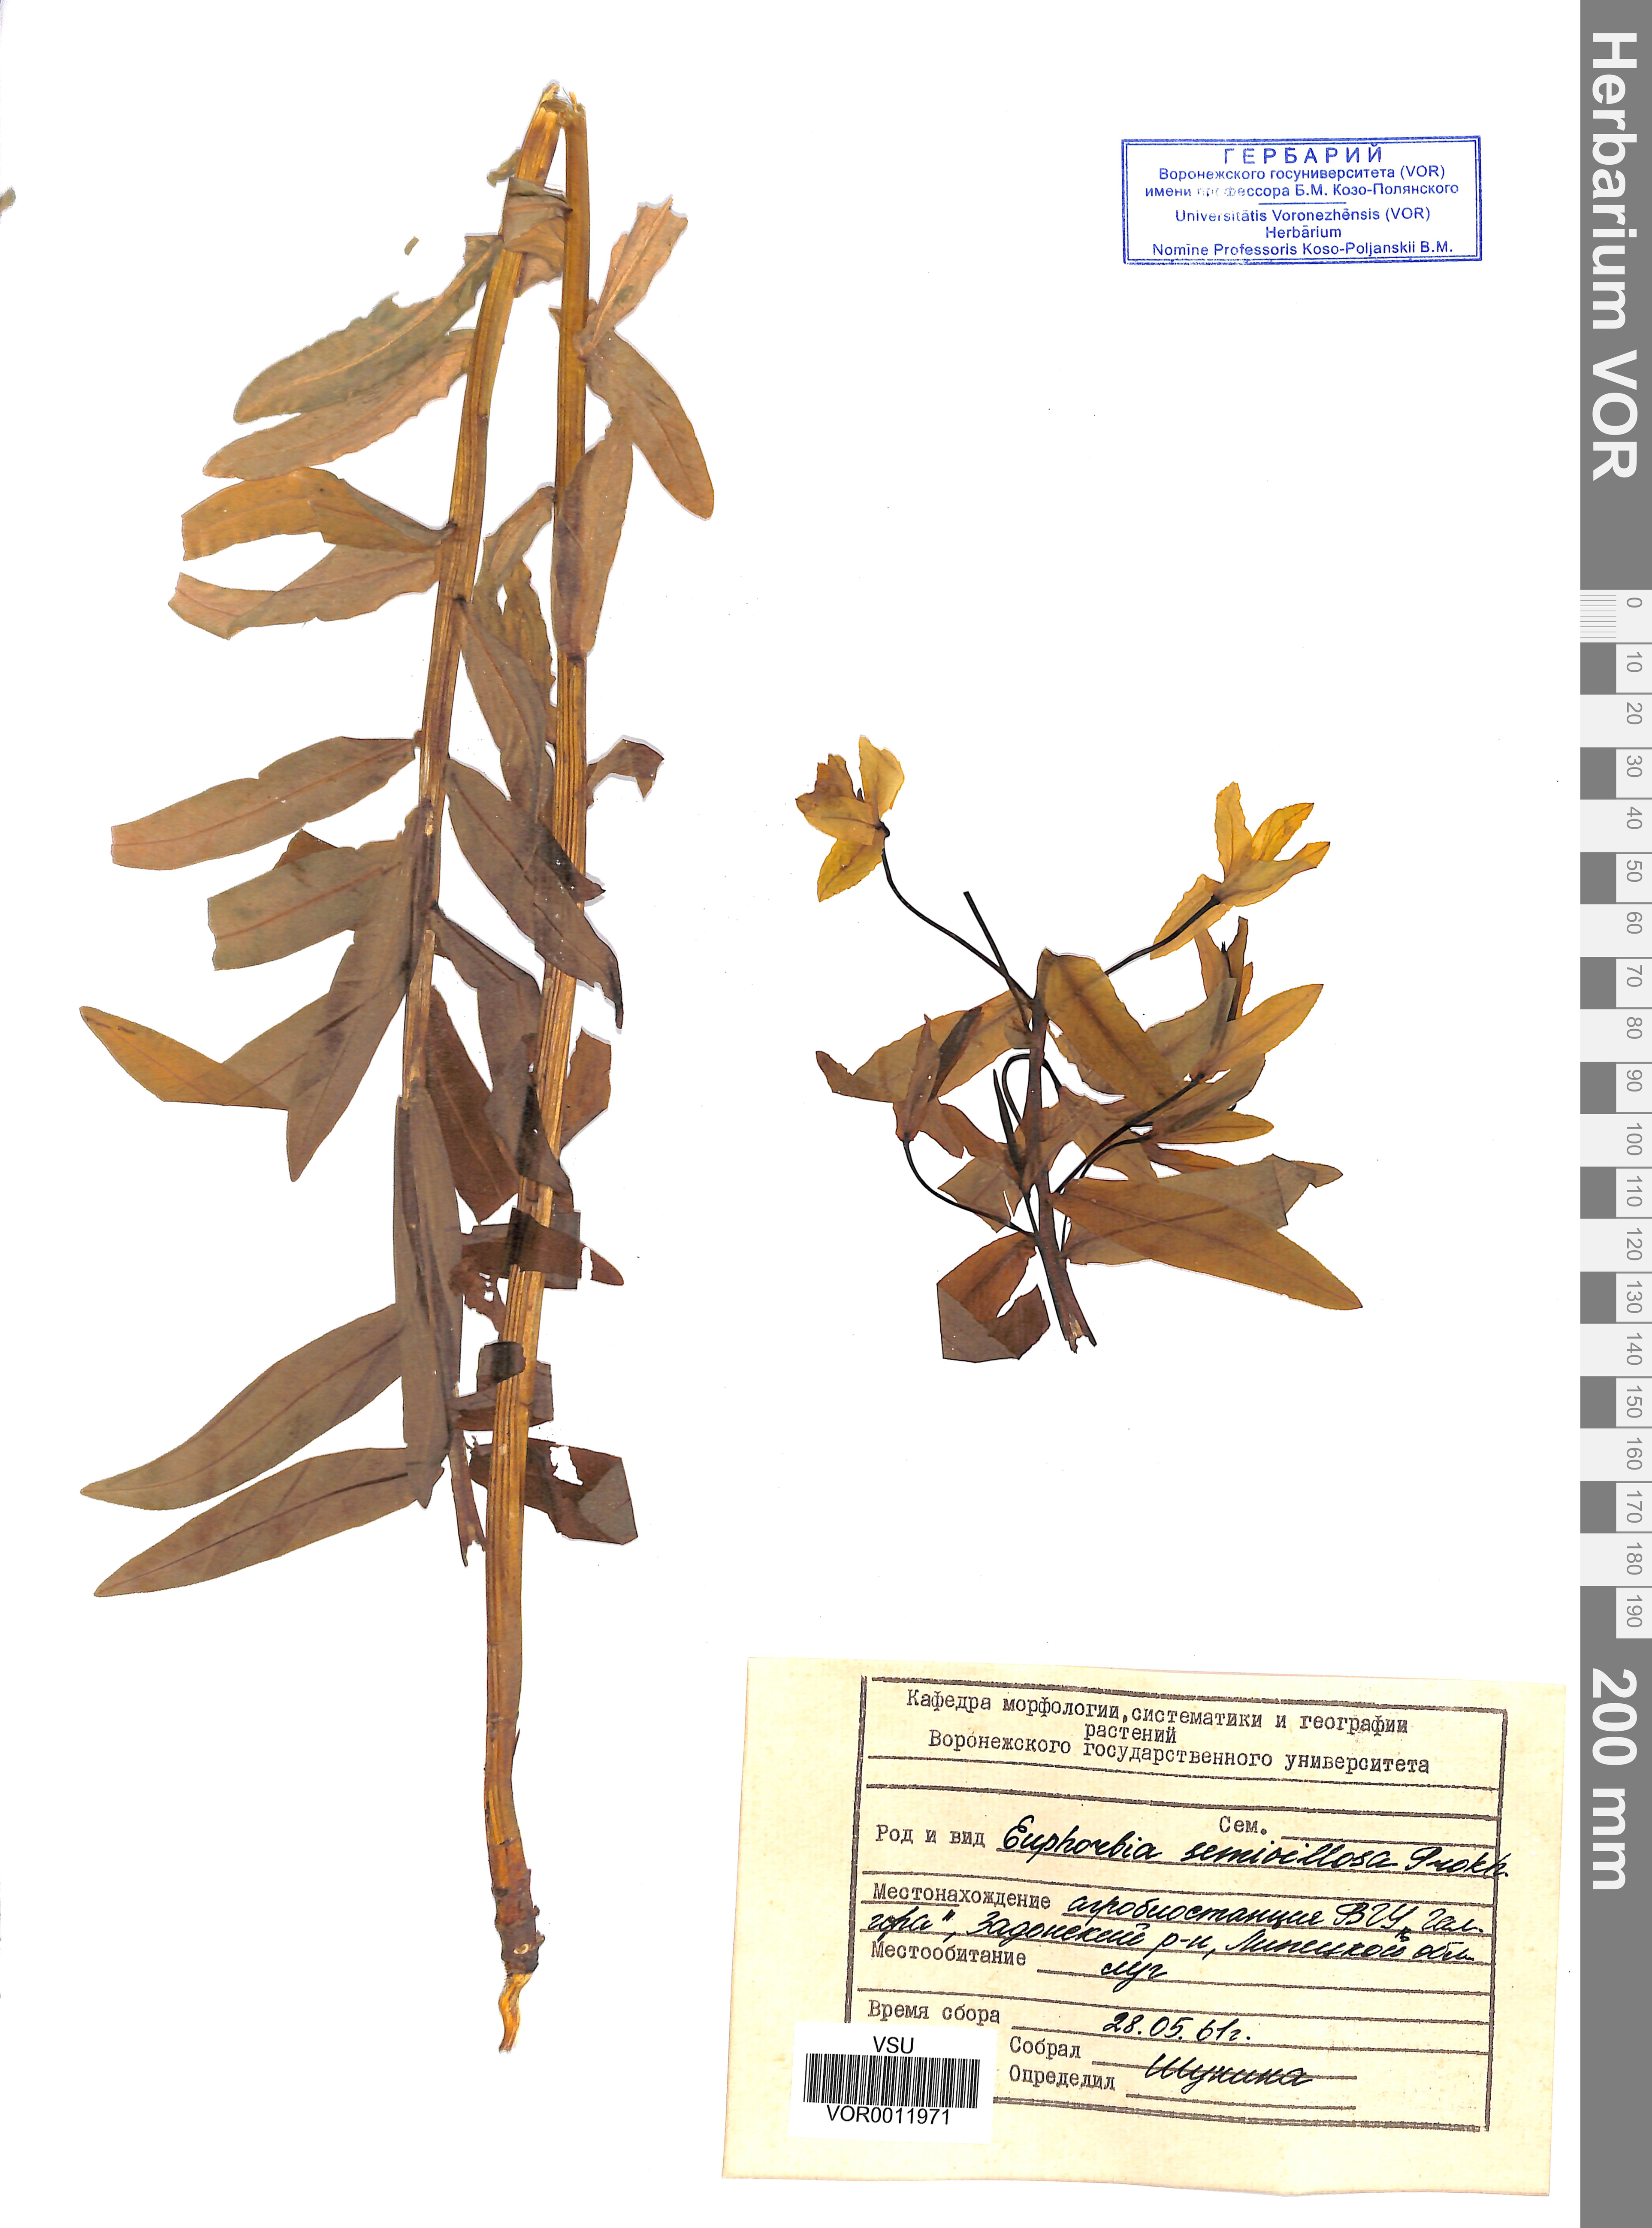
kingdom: Plantae
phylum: Tracheophyta
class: Magnoliopsida
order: Malpighiales
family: Euphorbiaceae
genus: Euphorbia
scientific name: Euphorbia semivillosa
